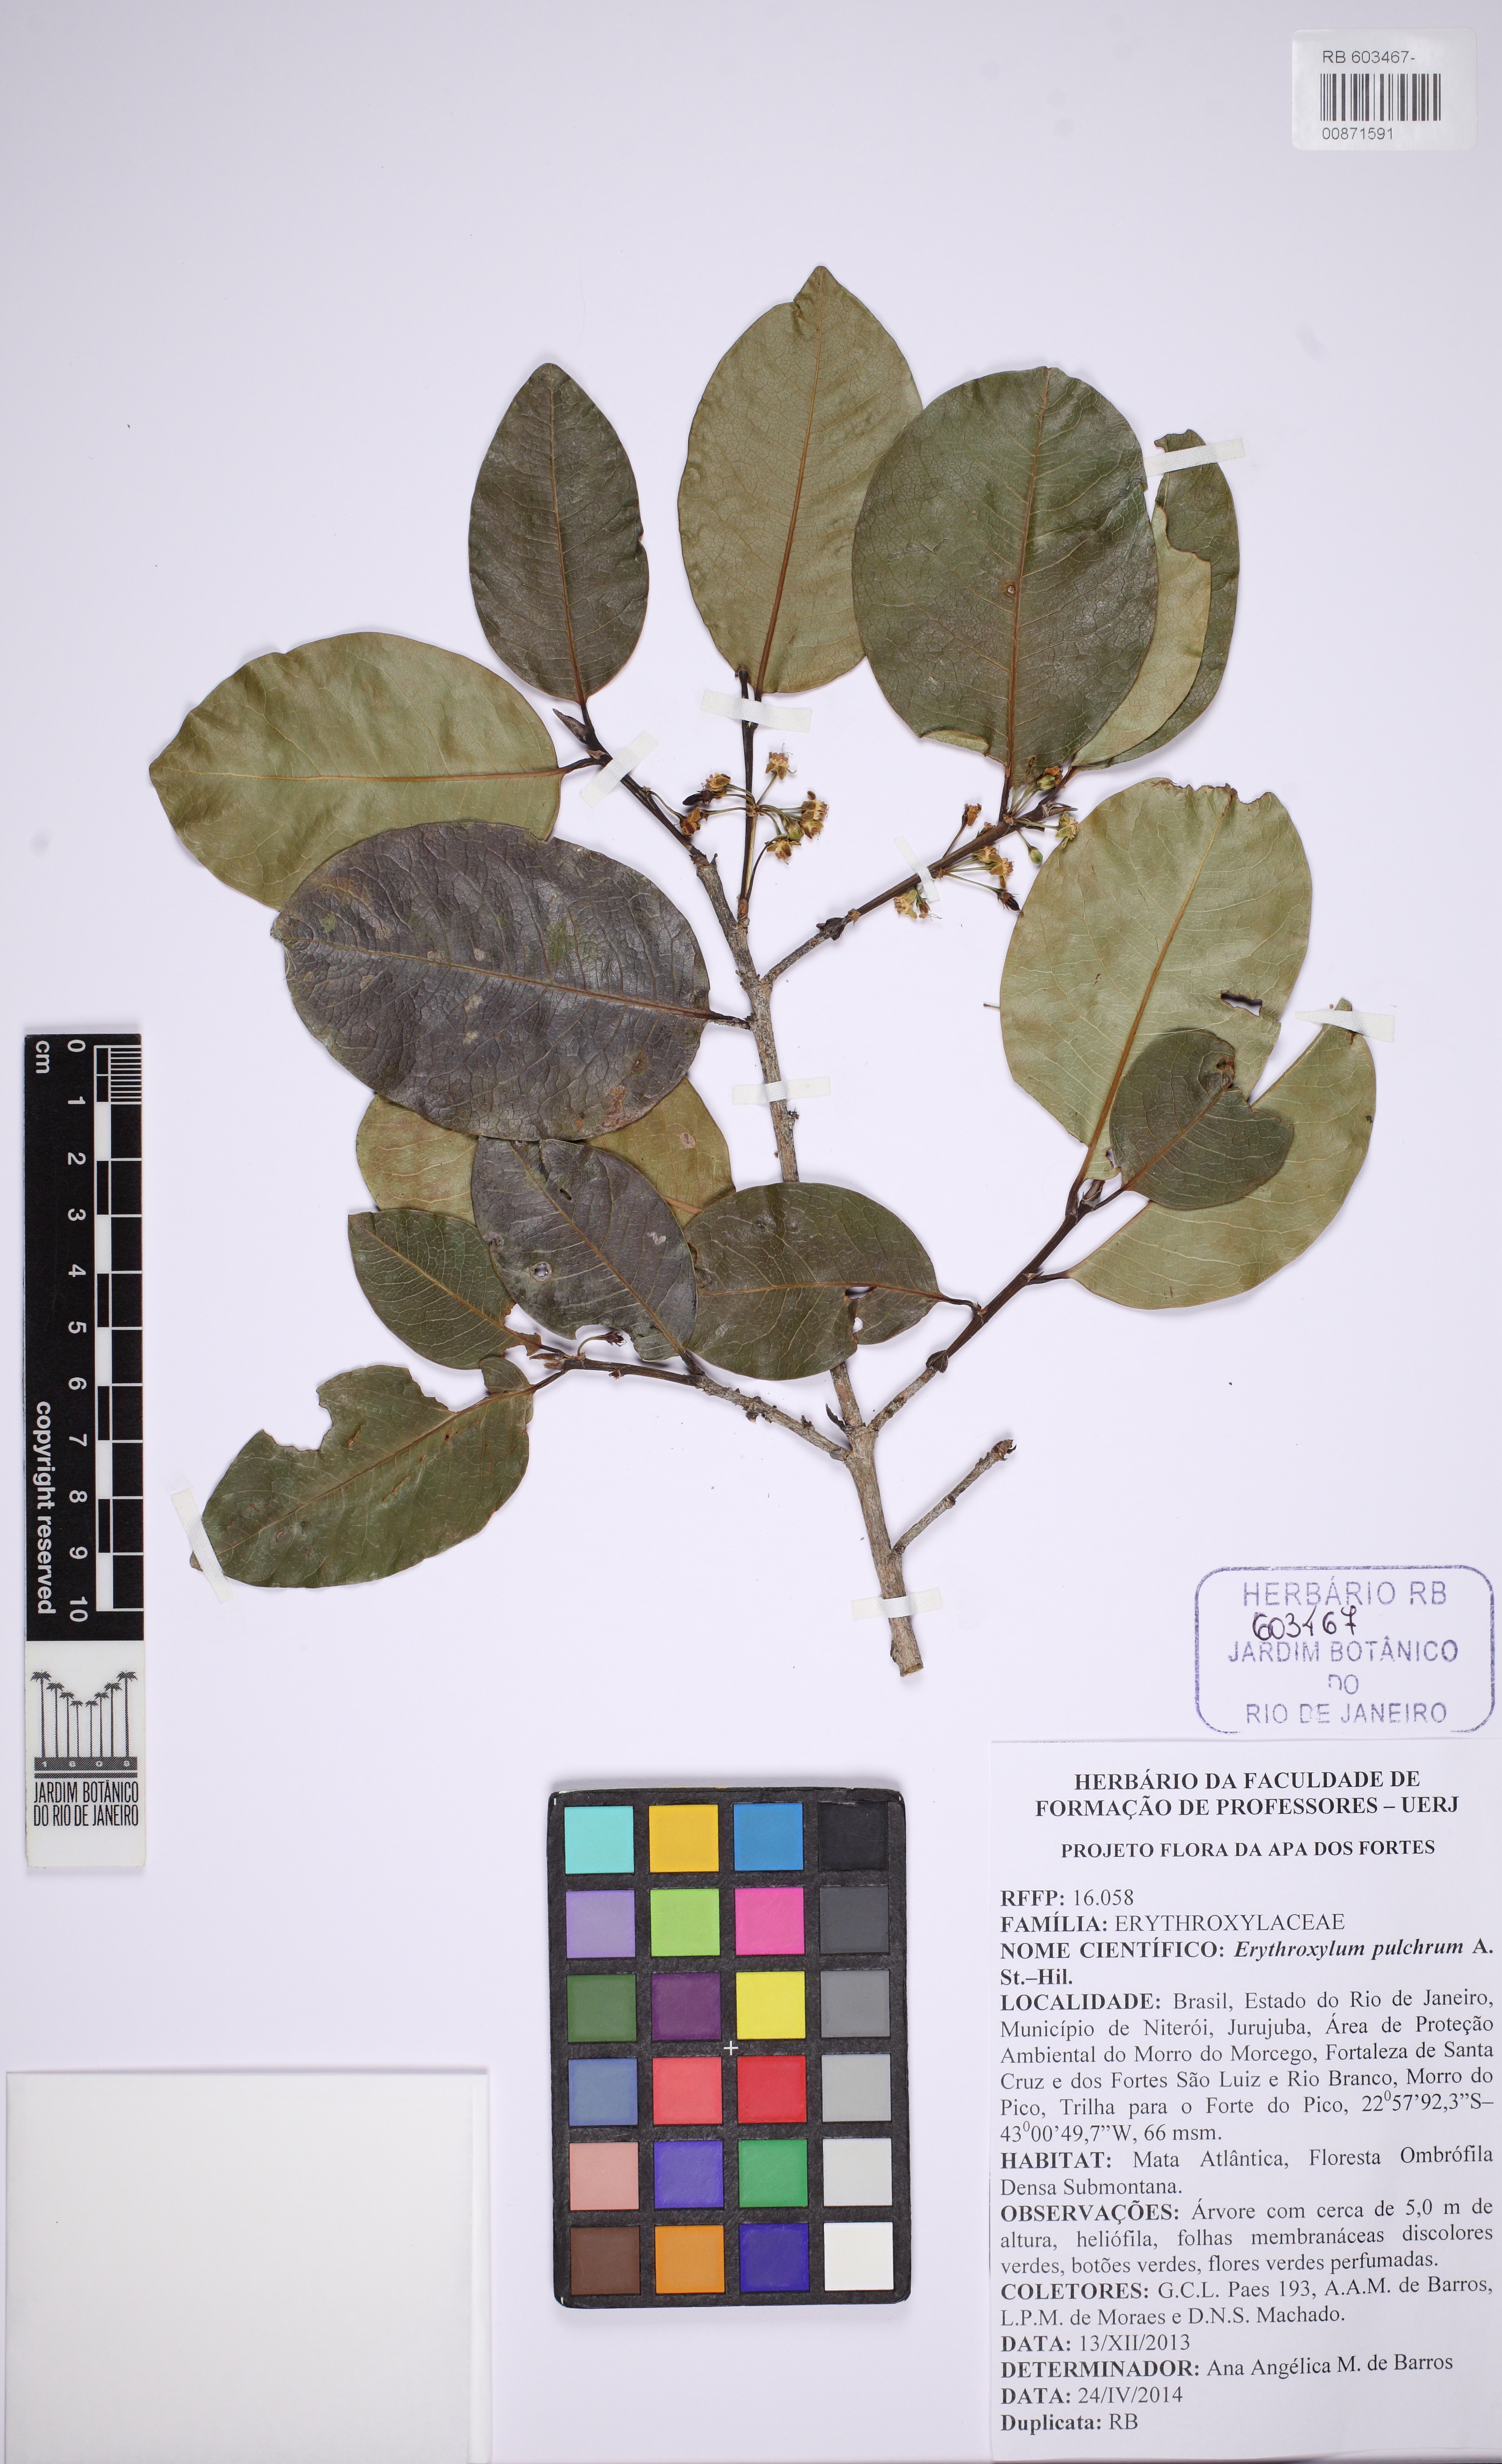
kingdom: Plantae
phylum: Tracheophyta
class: Magnoliopsida
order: Malpighiales
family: Erythroxylaceae
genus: Erythroxylum
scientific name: Erythroxylum pulchrum
